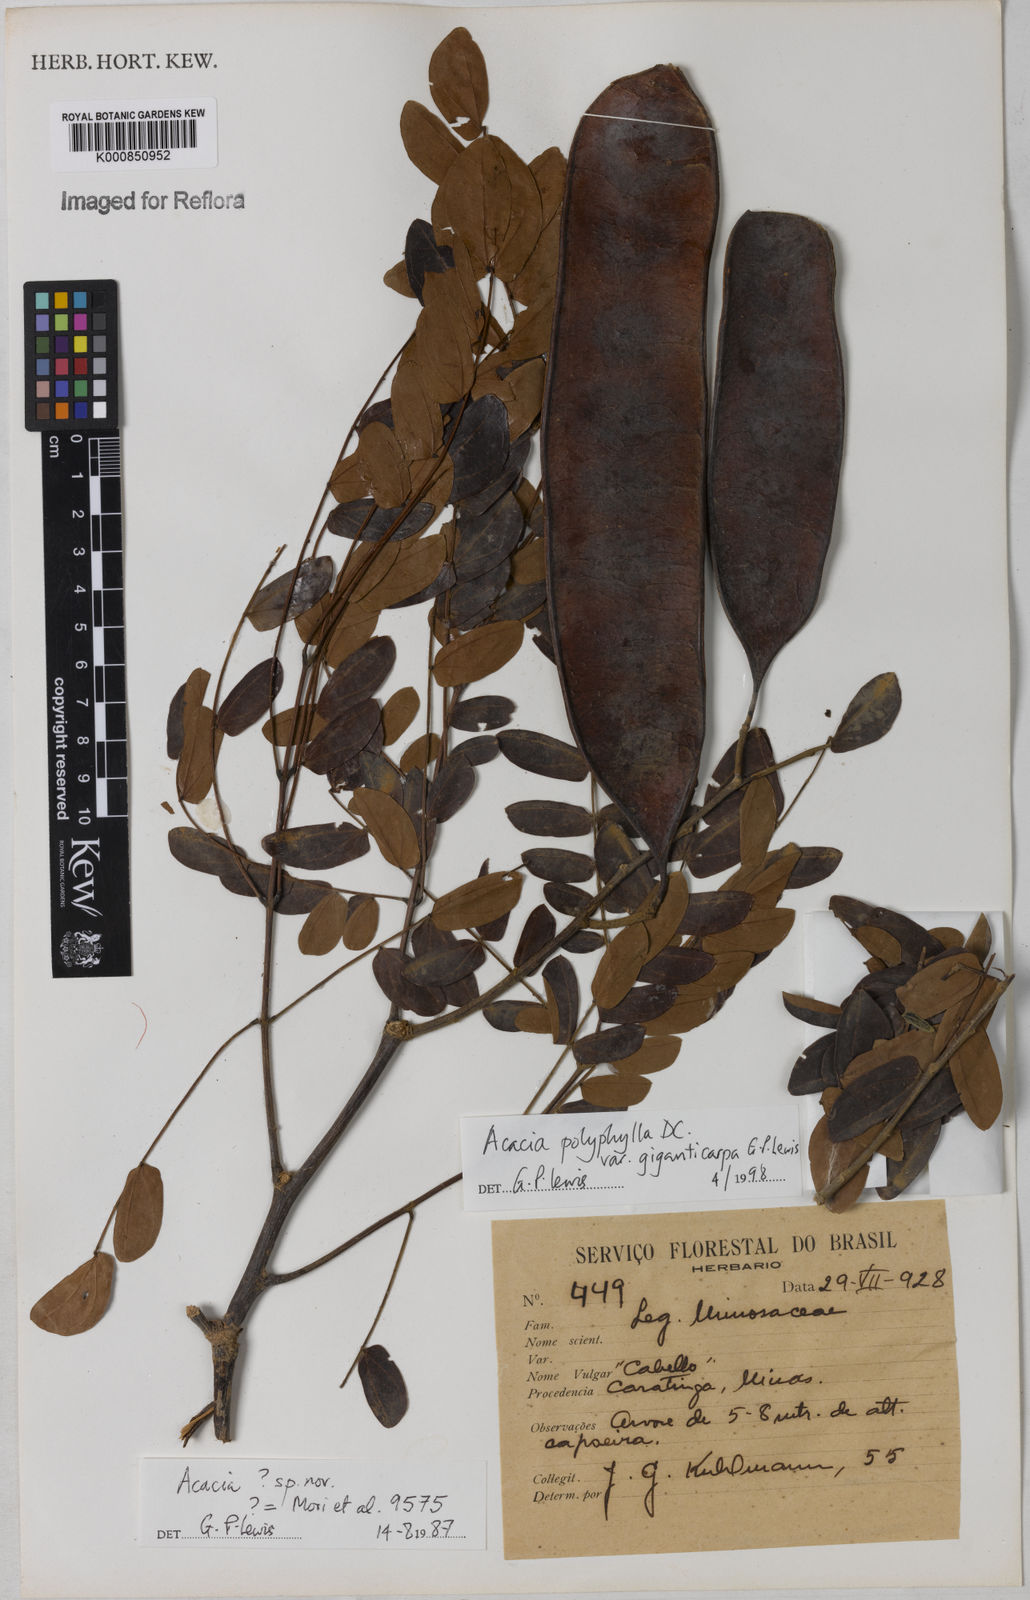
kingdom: Plantae
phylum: Tracheophyta
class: Magnoliopsida
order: Fabales
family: Fabaceae
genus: Senegalia
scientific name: Senegalia giganticarpa
